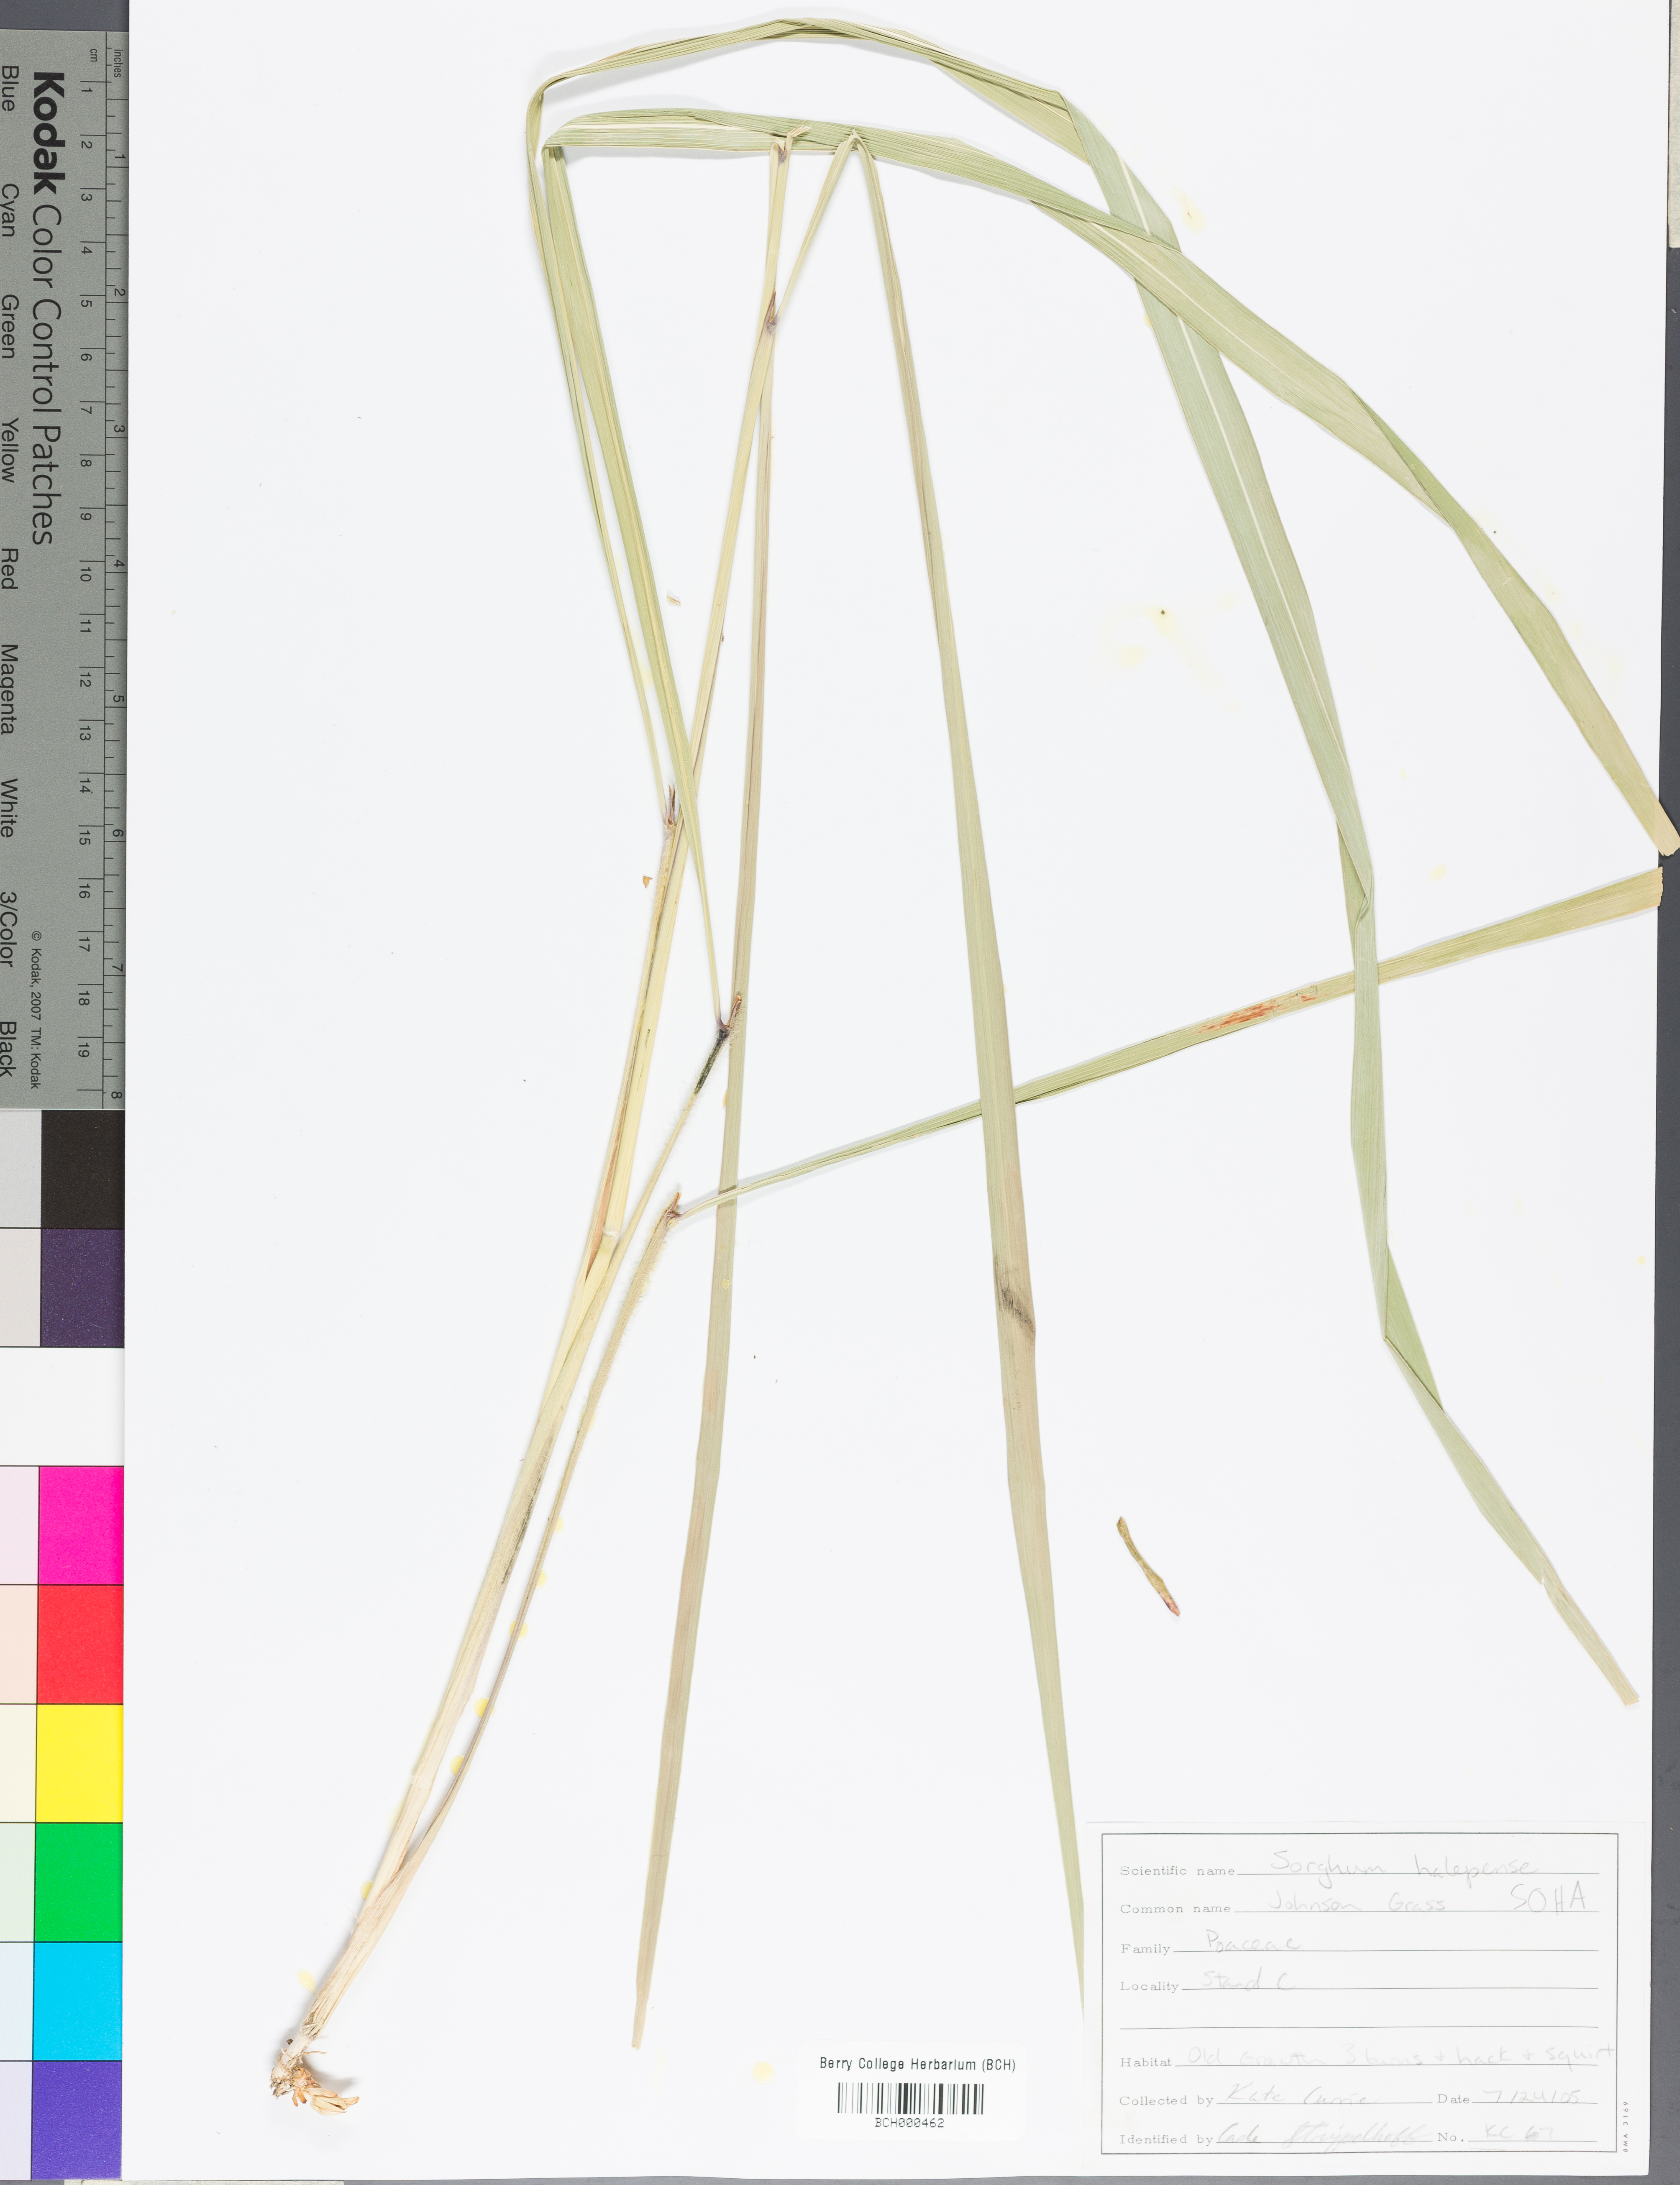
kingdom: Plantae
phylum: Tracheophyta
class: Liliopsida
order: Poales
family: Poaceae
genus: Sorghum
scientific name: Sorghum halepense
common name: Johnson-grass
